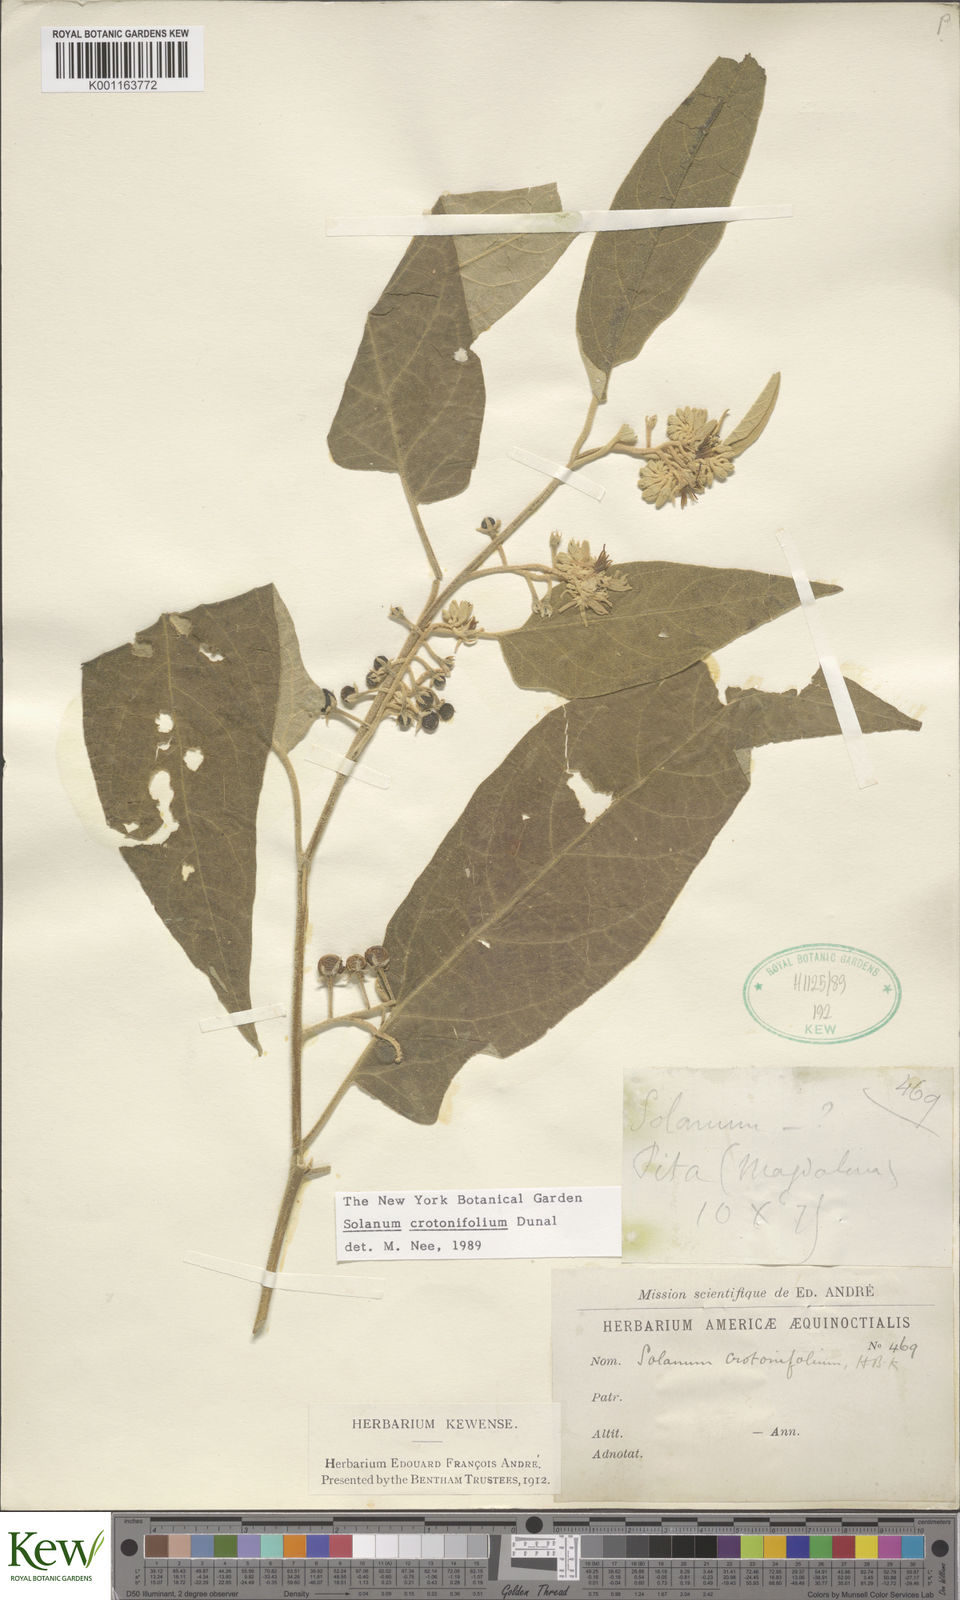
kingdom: Plantae
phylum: Tracheophyta
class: Magnoliopsida
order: Solanales
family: Solanaceae
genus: Solanum
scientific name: Solanum crotonifolium
